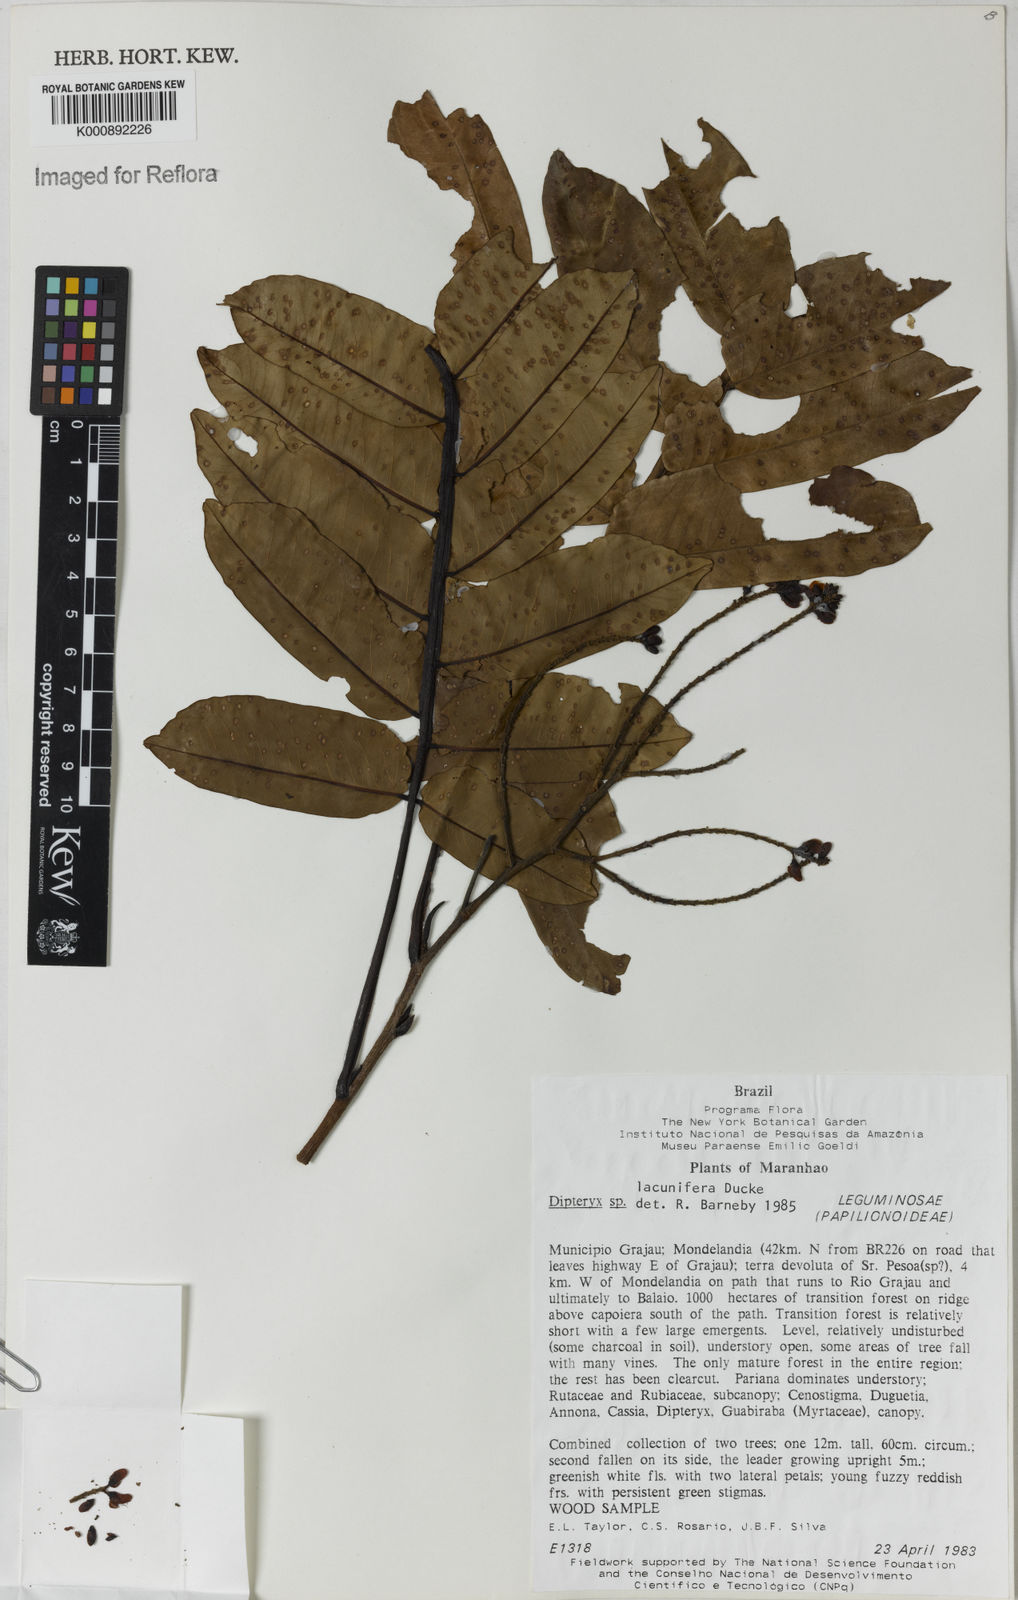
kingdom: Plantae
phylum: Tracheophyta
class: Magnoliopsida
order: Fabales
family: Fabaceae
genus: Dipteryx
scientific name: Dipteryx lacunifera
